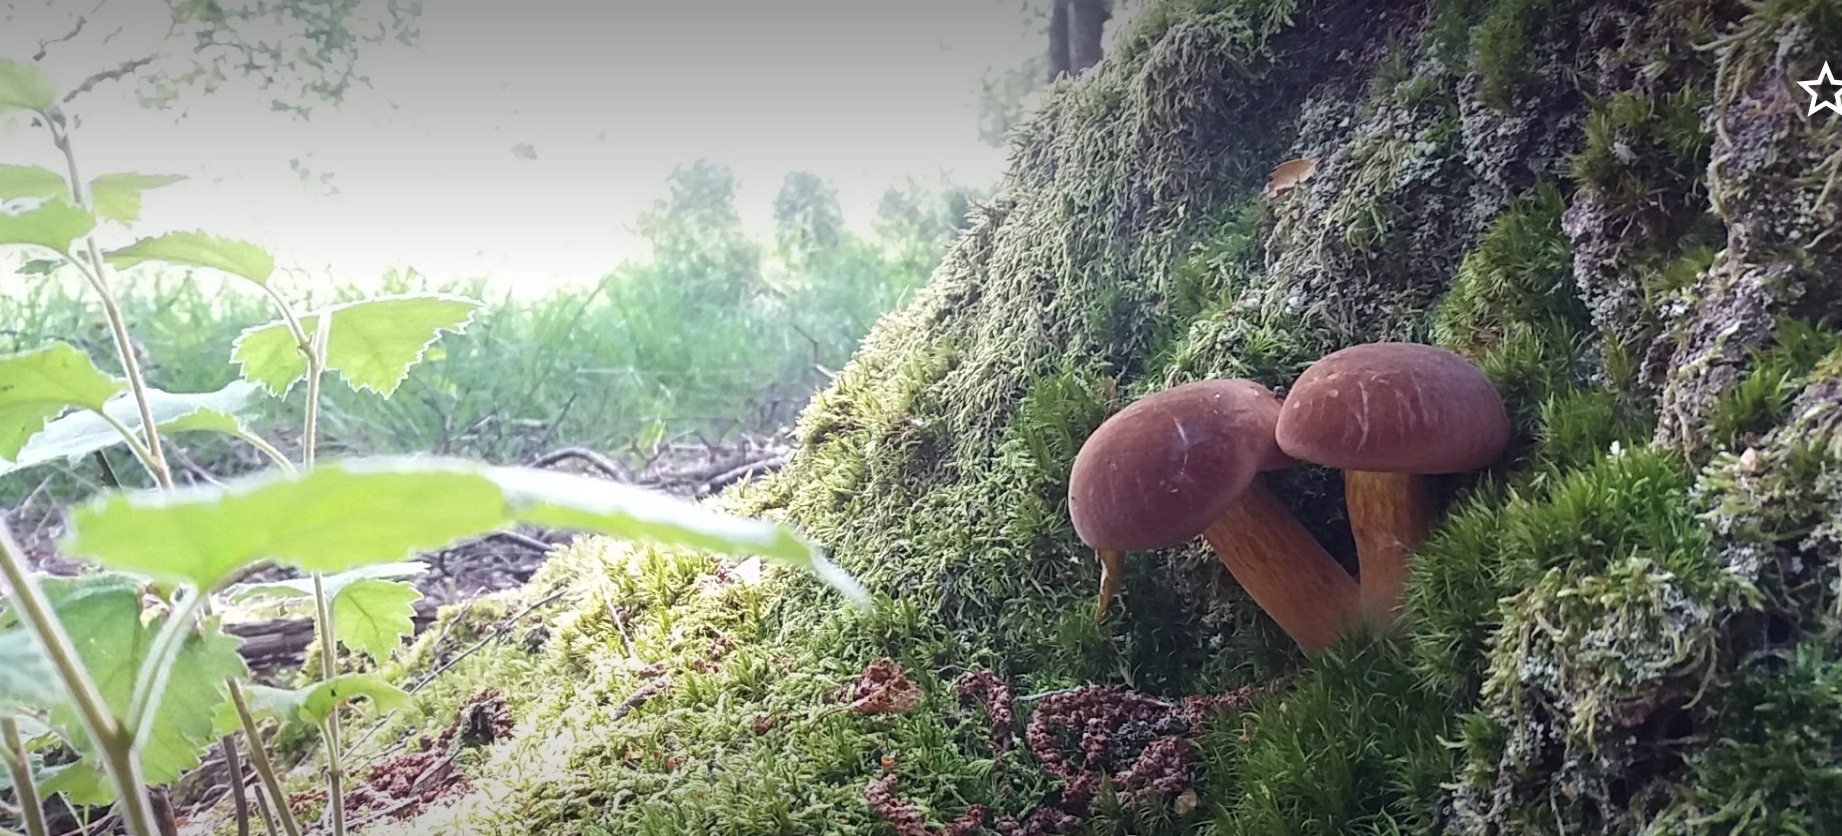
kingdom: Fungi
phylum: Basidiomycota
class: Agaricomycetes
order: Boletales
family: Boletaceae
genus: Imleria
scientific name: Imleria badia
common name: brunstokket rørhat
